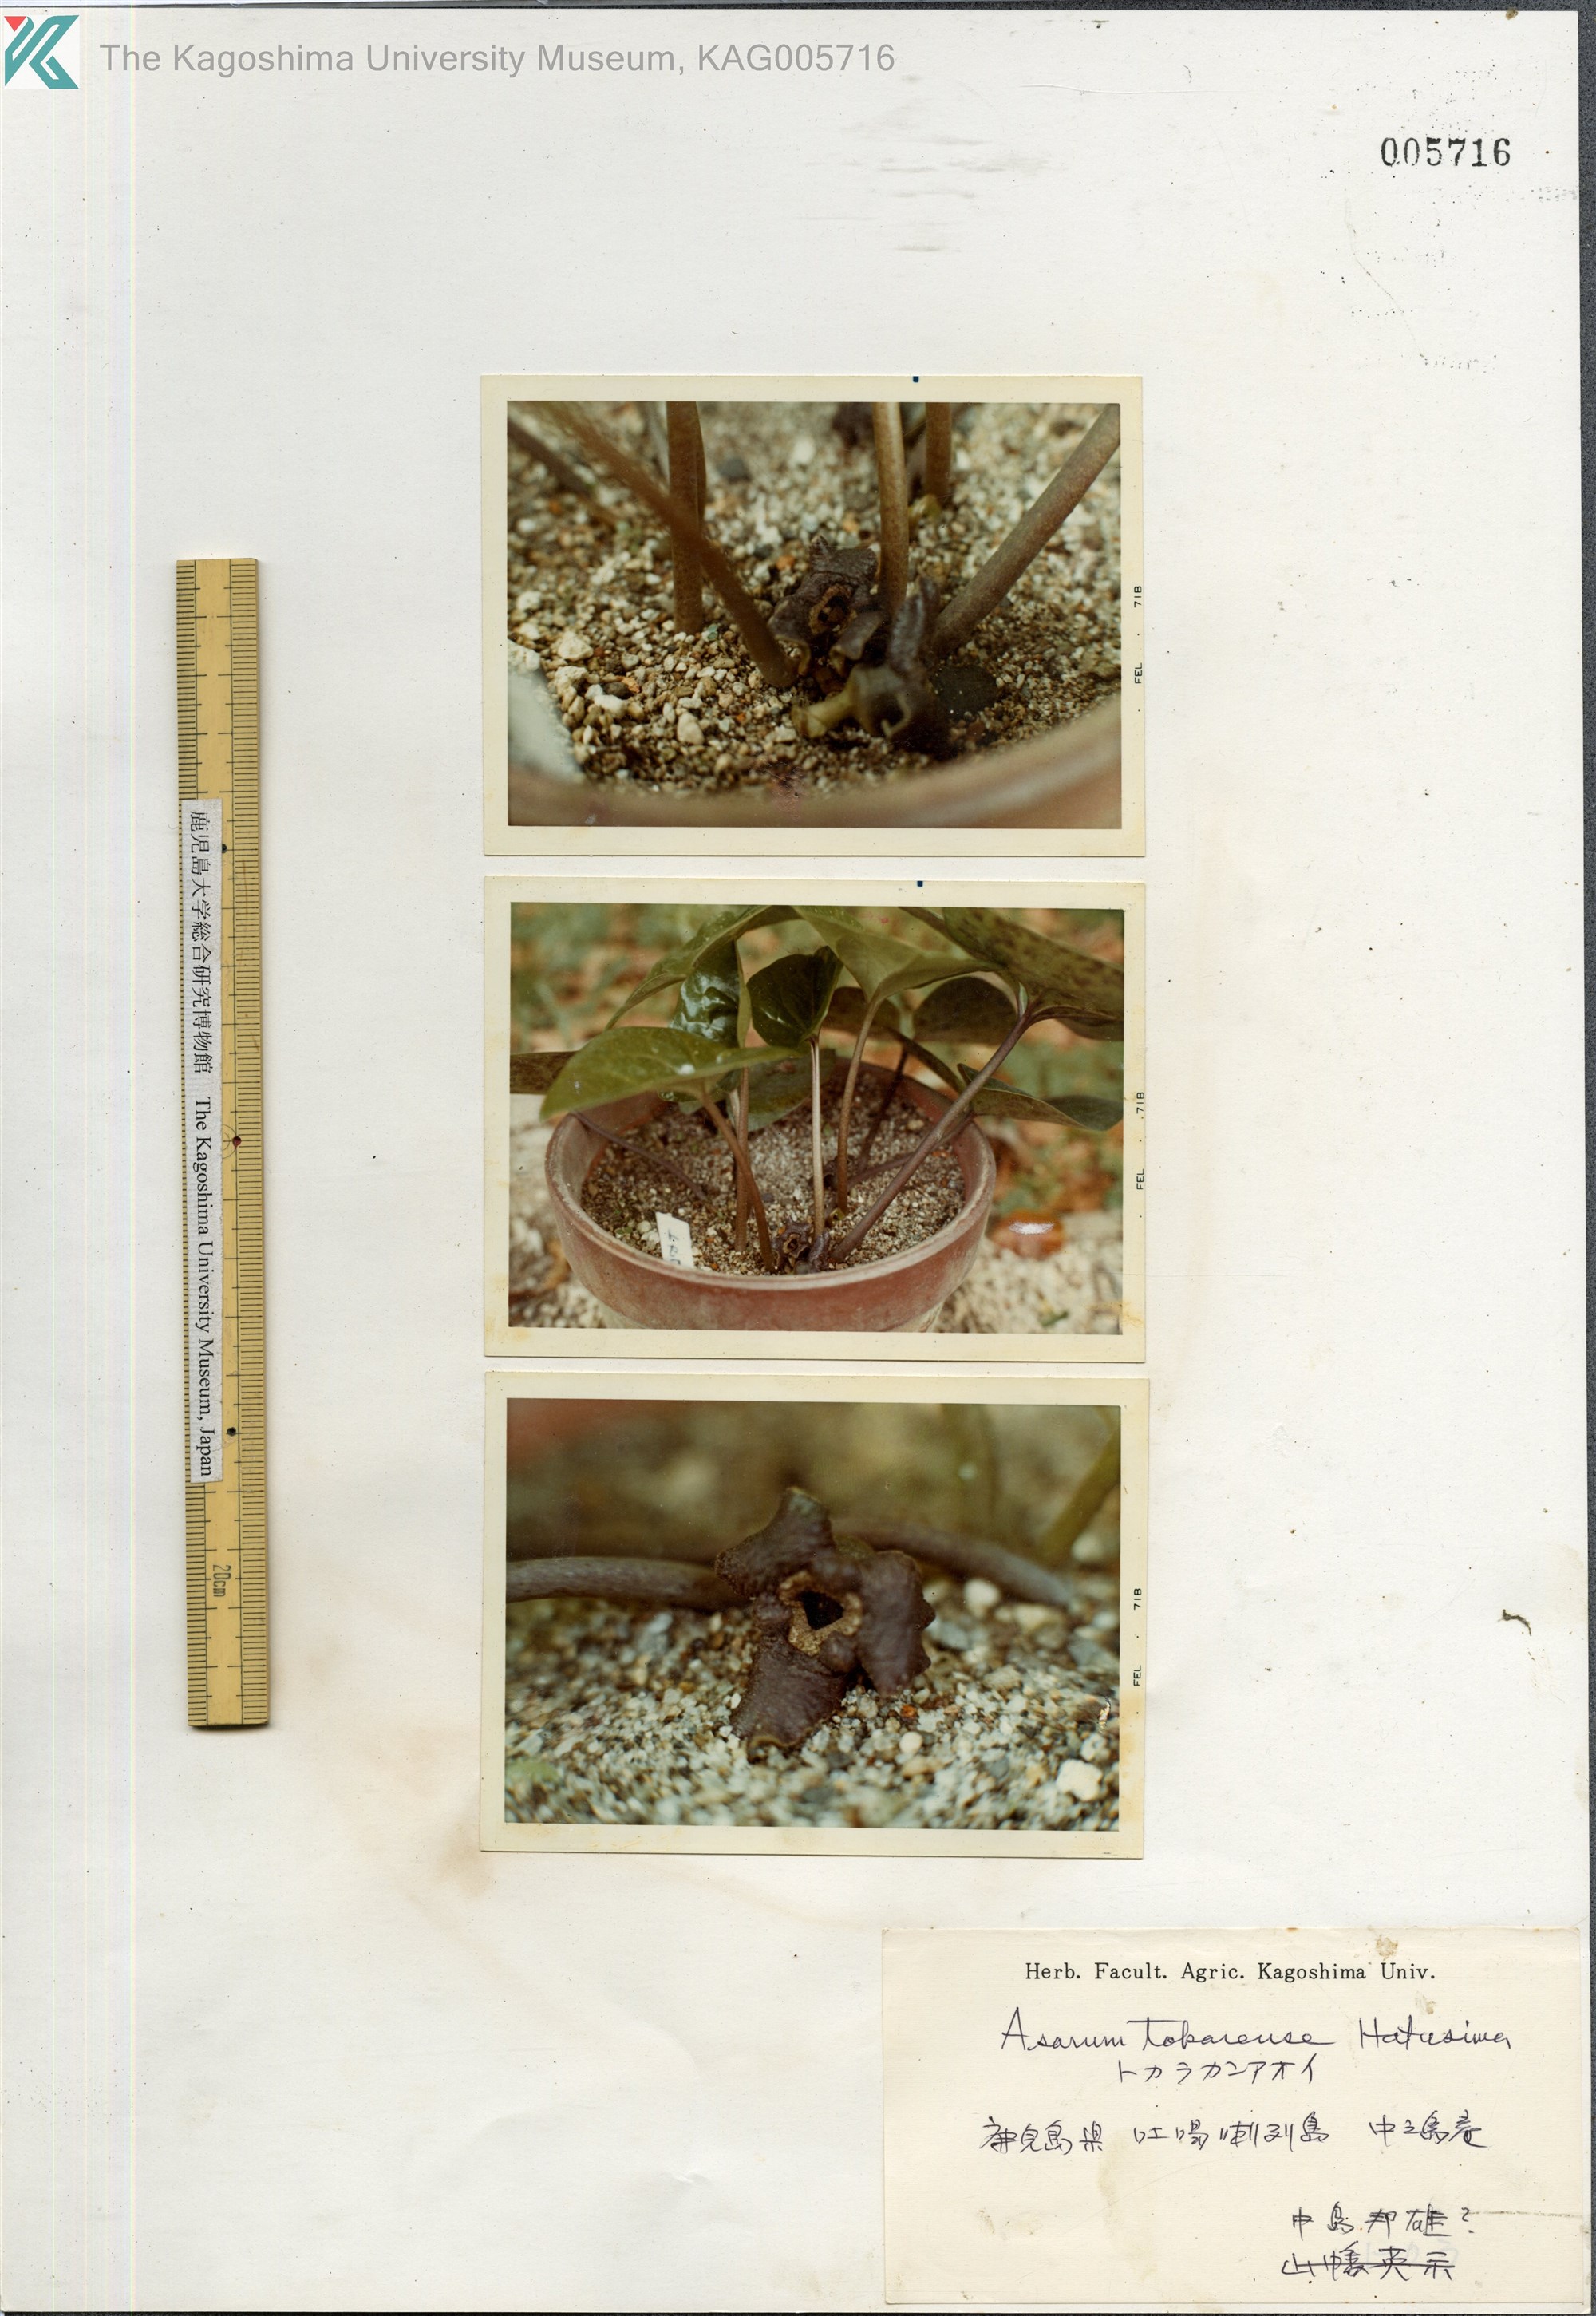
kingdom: Plantae
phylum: Tracheophyta
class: Magnoliopsida
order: Piperales
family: Aristolochiaceae
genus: Asarum
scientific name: Asarum tokarense
